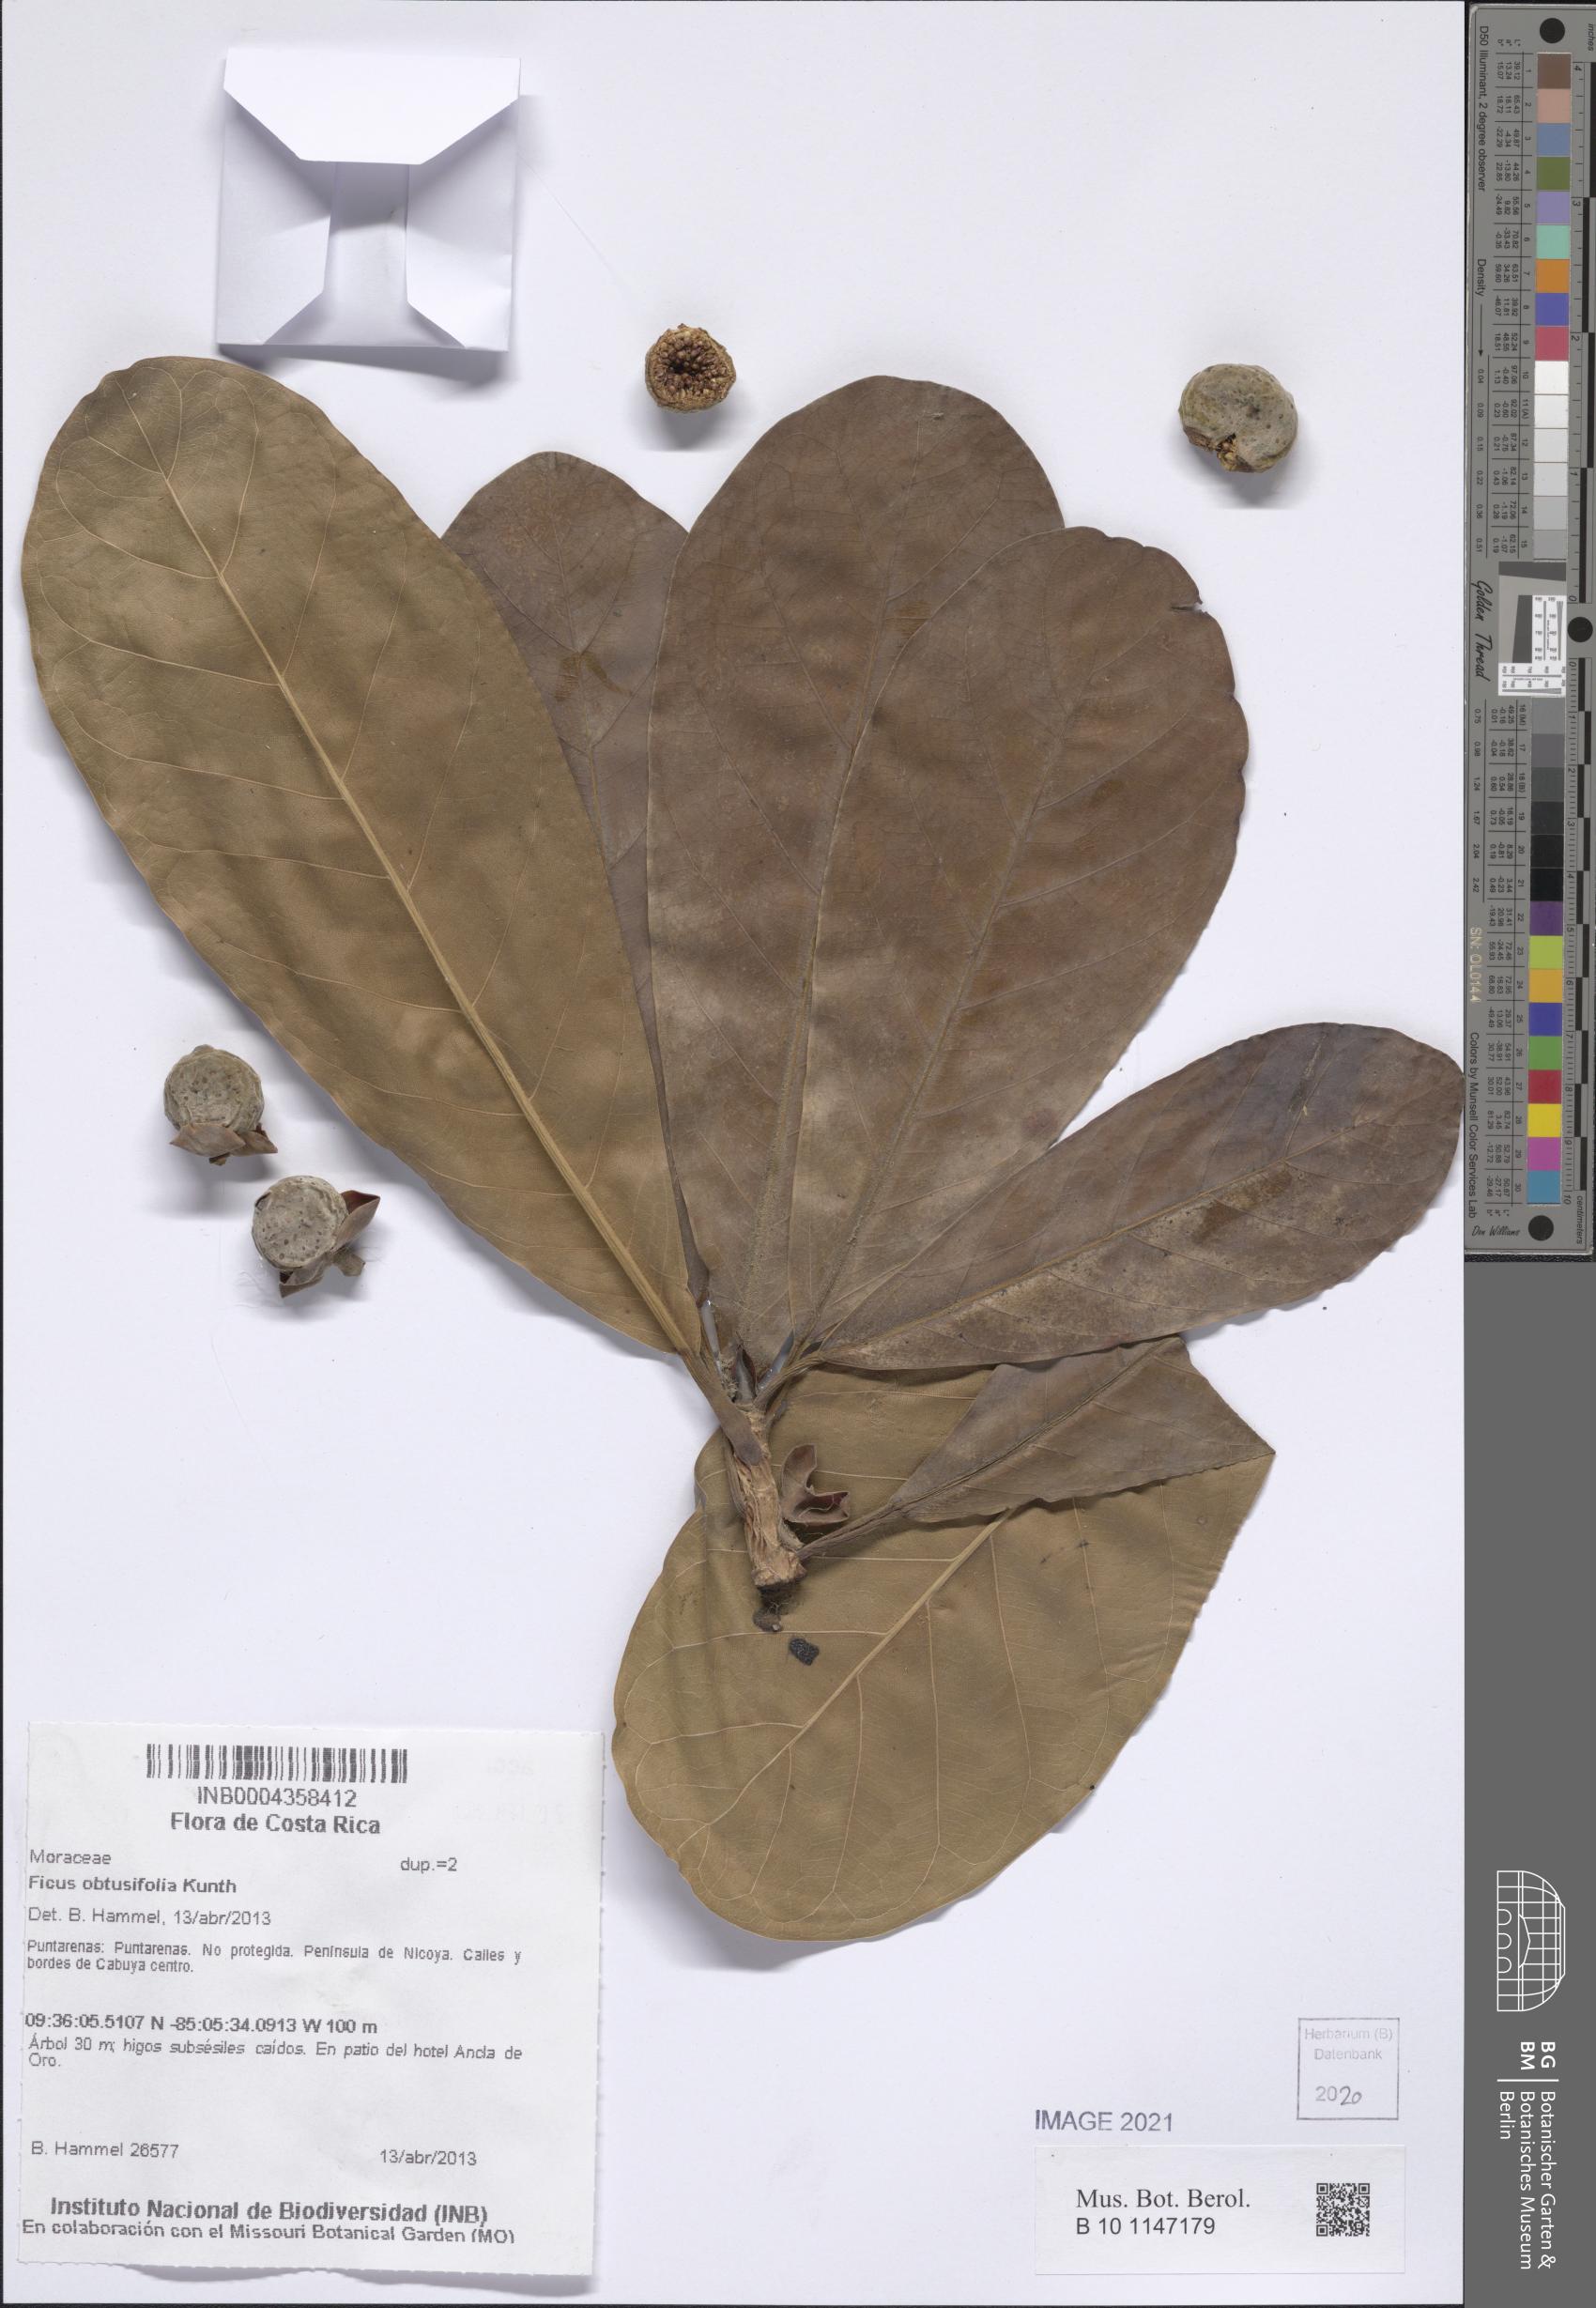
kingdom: Plantae
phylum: Tracheophyta
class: Magnoliopsida
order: Rosales
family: Moraceae
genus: Ficus
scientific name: Ficus obtusifolia
